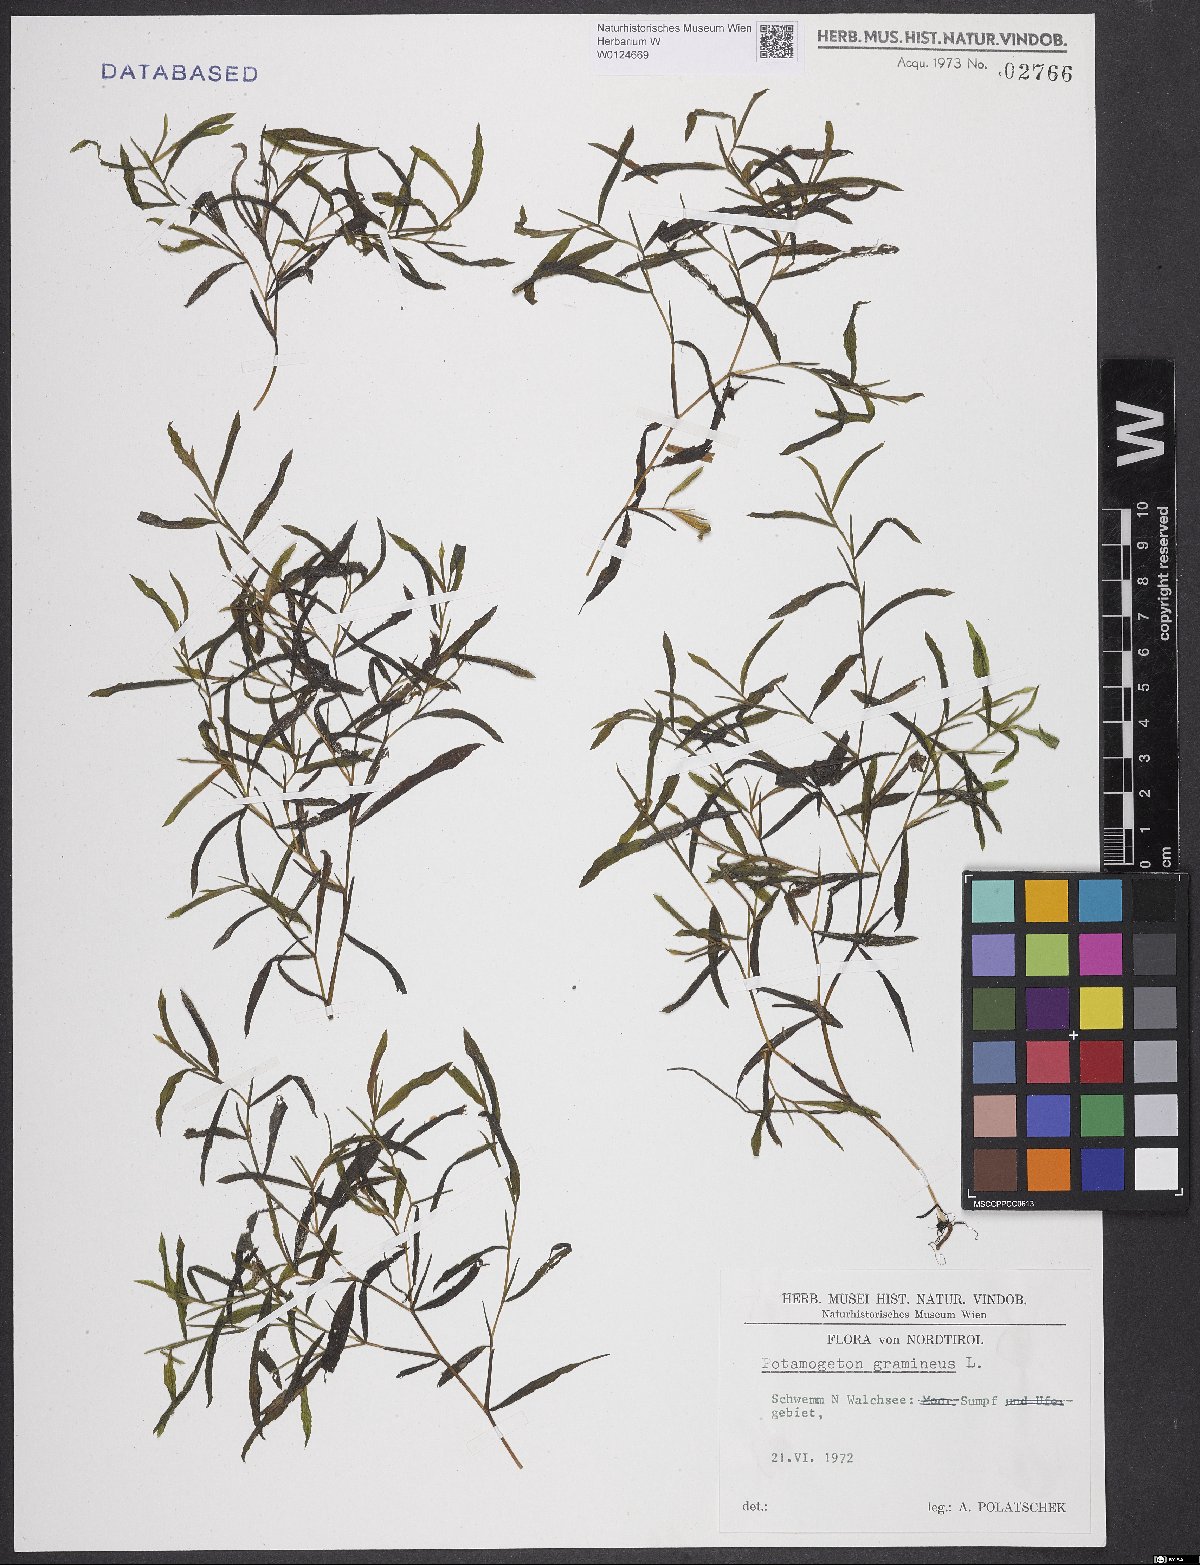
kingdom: Plantae
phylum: Tracheophyta
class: Liliopsida
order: Alismatales
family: Potamogetonaceae
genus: Potamogeton
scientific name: Potamogeton gramineus
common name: Various-leaved pondweed
